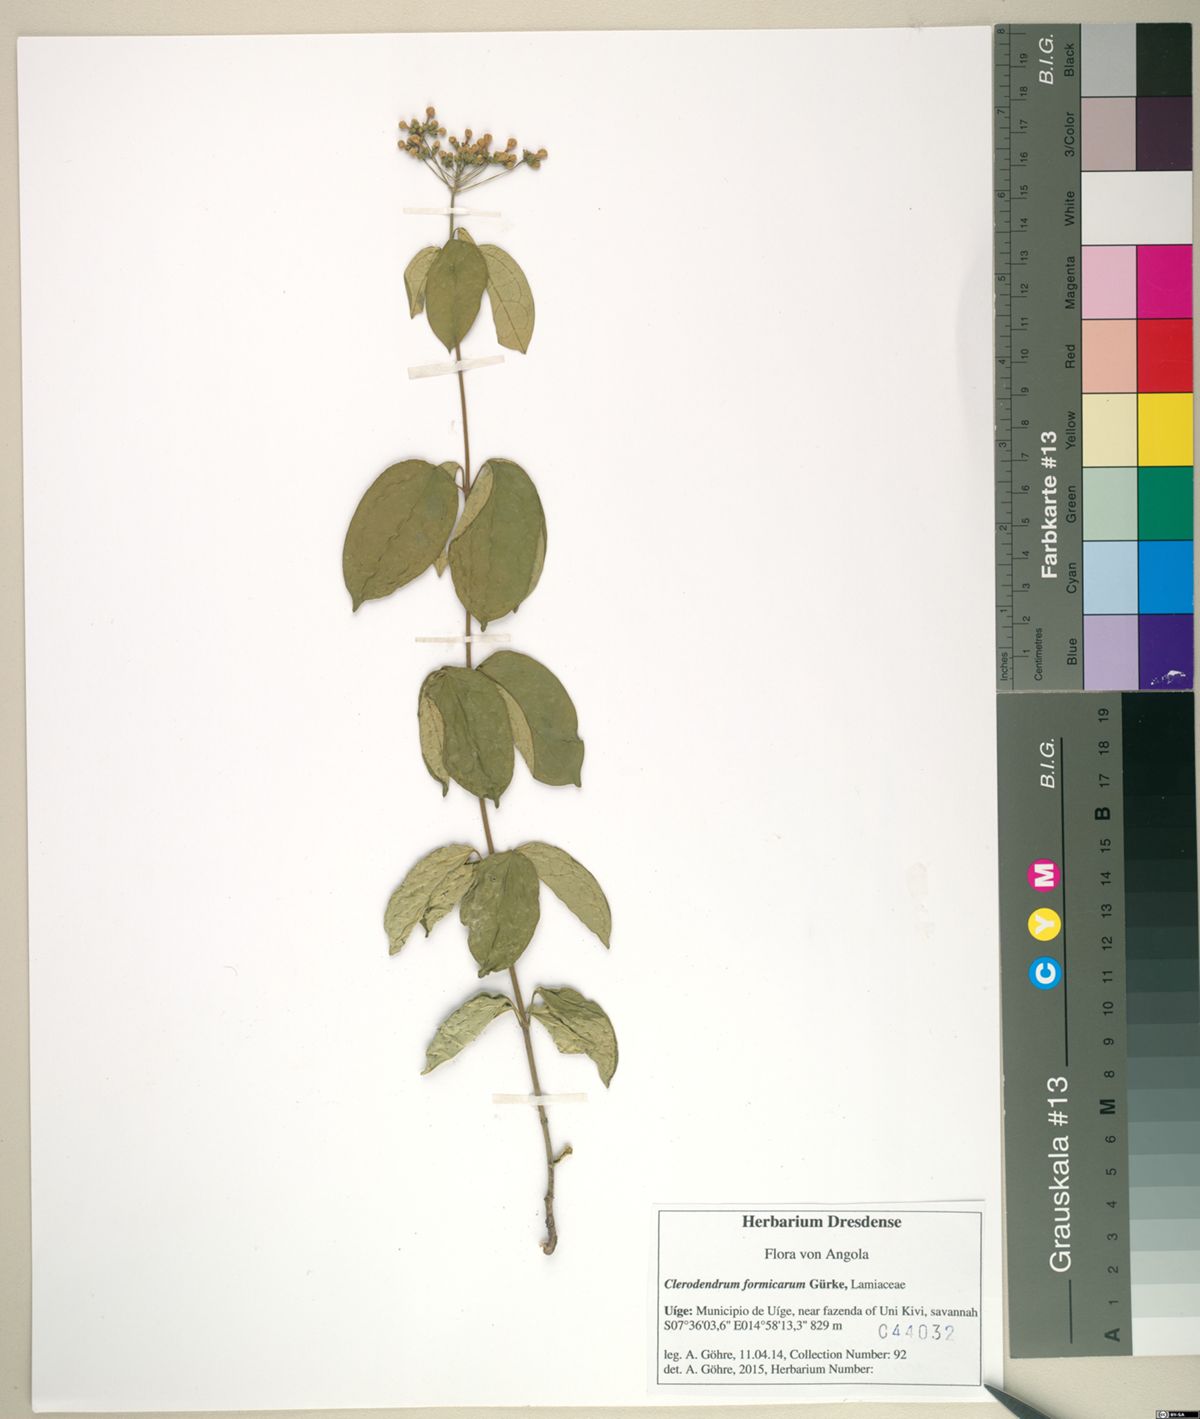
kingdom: Plantae
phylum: Tracheophyta
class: Magnoliopsida
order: Lamiales
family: Lamiaceae
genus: Clerodendrum
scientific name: Clerodendrum formicarum
